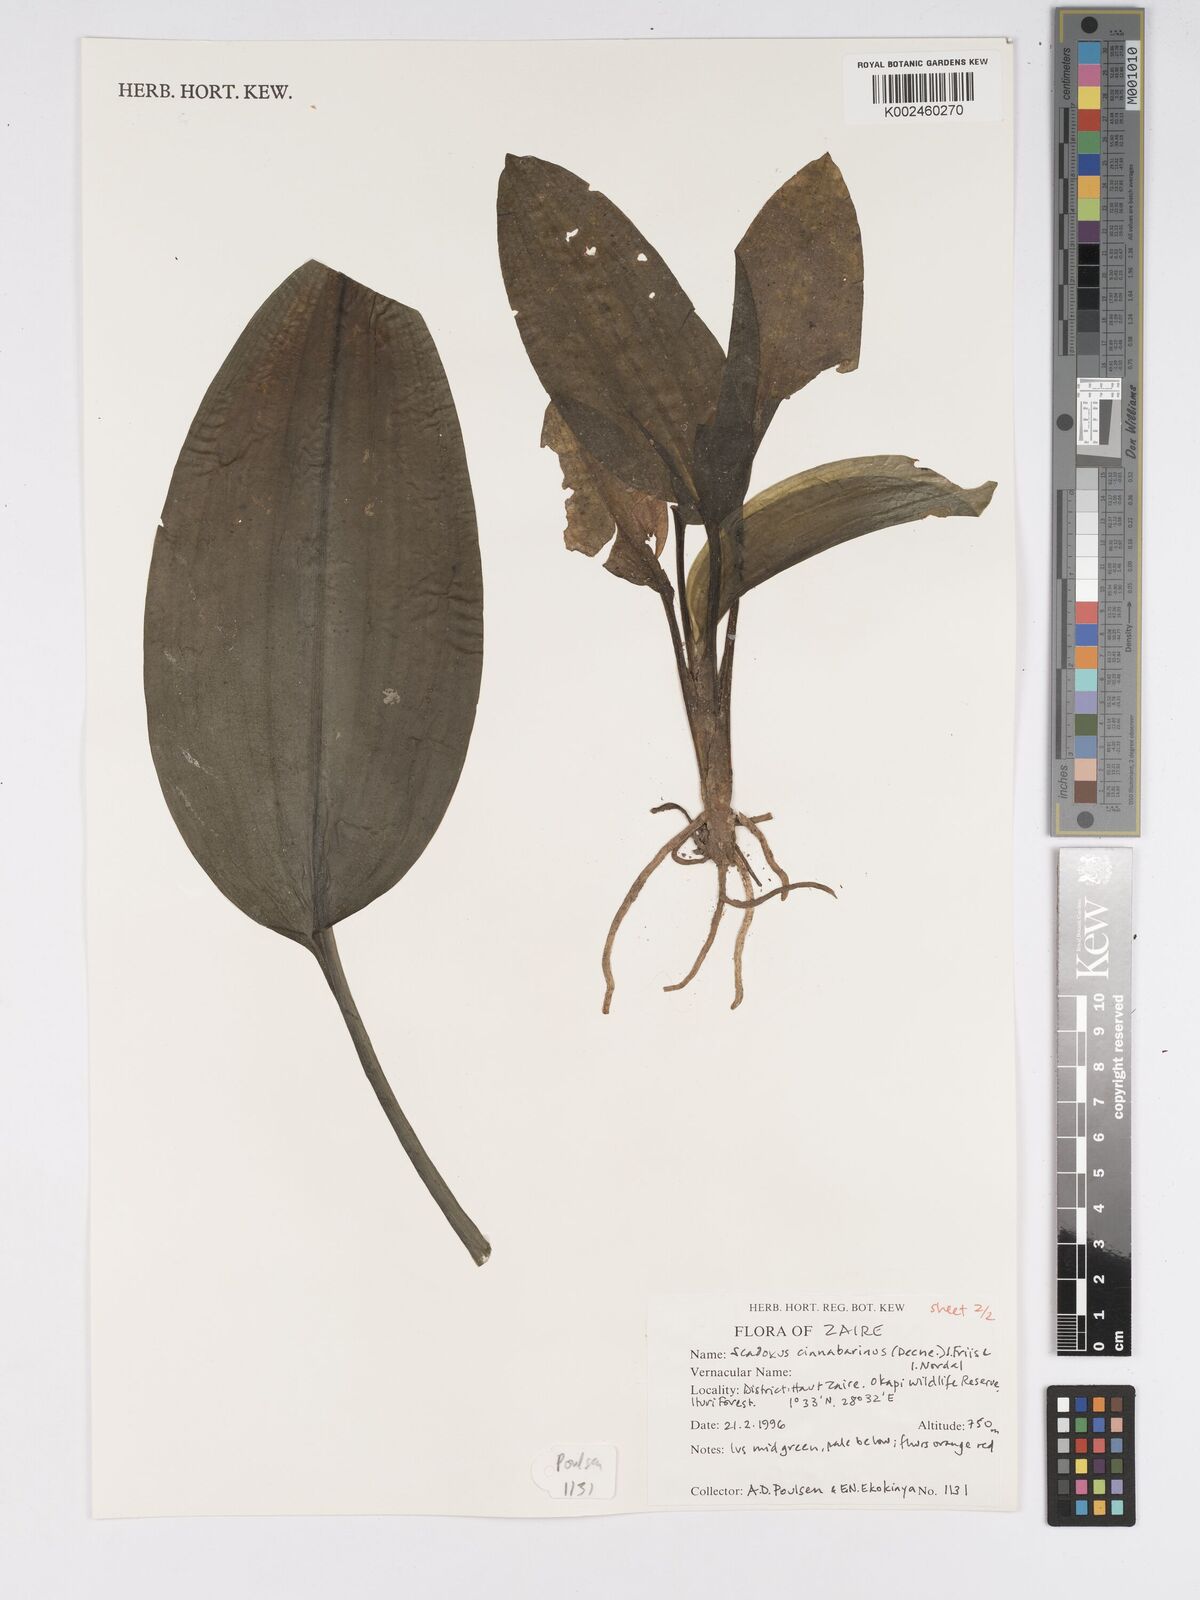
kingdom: Plantae
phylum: Tracheophyta
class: Liliopsida
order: Asparagales
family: Amaryllidaceae
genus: Scadoxus
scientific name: Scadoxus cinnabarinus
